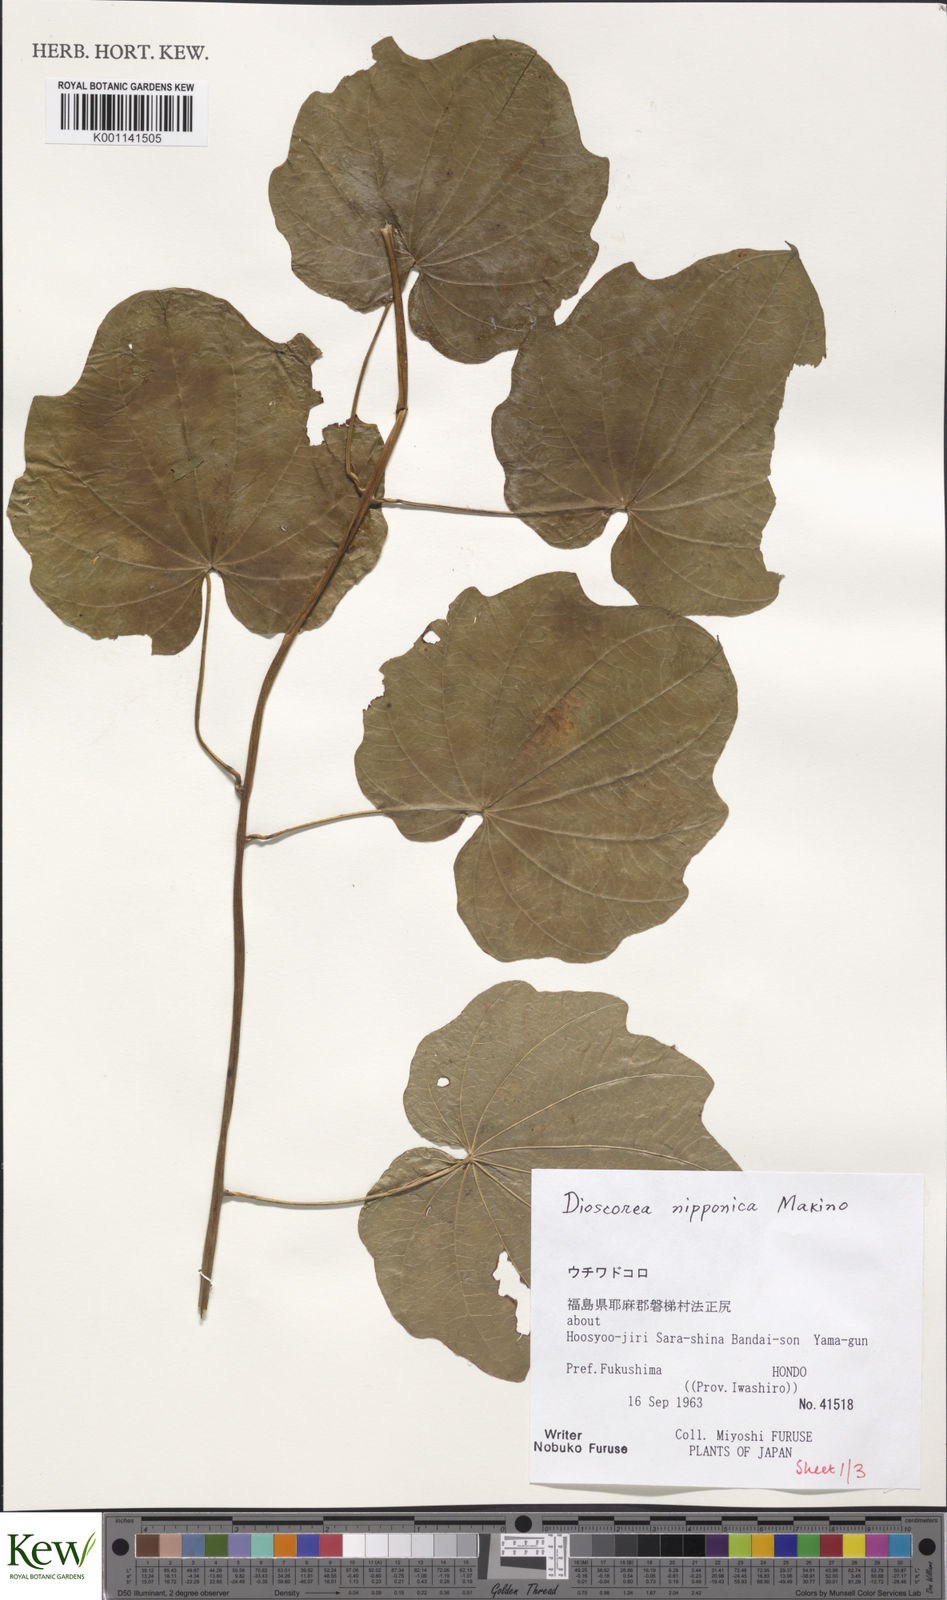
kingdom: Plantae
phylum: Tracheophyta
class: Liliopsida
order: Dioscoreales
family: Dioscoreaceae
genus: Dioscorea
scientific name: Dioscorea nipponica
